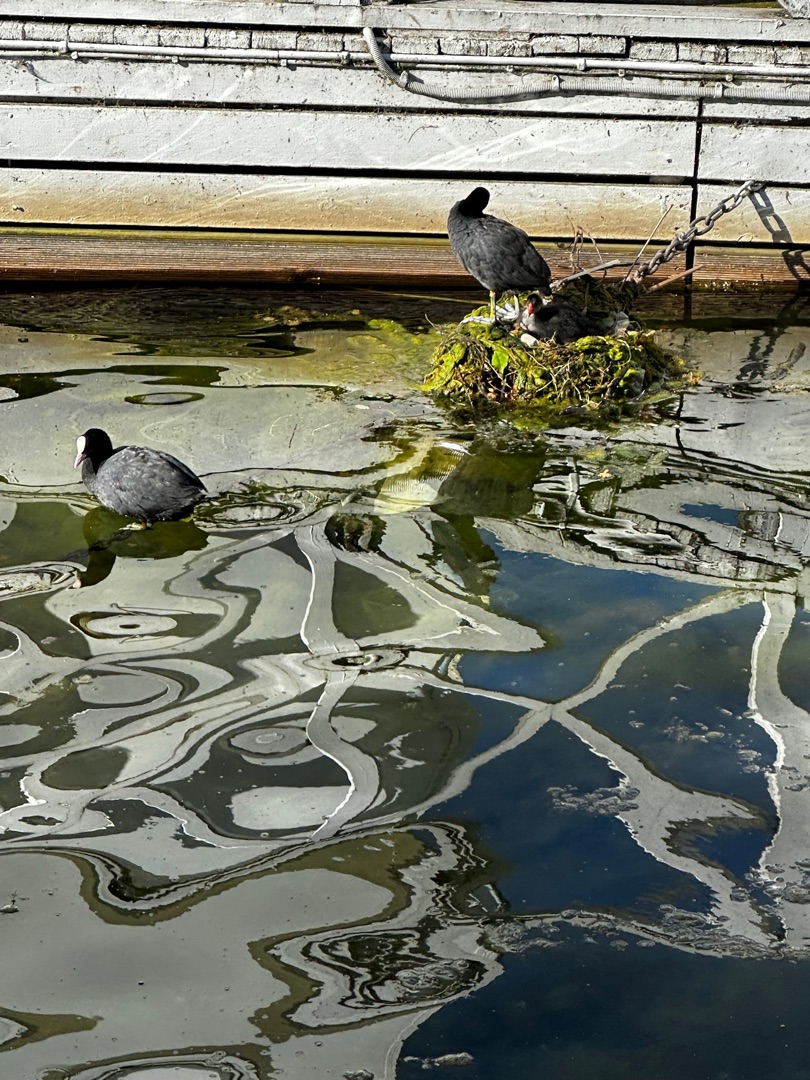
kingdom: Animalia
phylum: Chordata
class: Aves
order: Gruiformes
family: Rallidae
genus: Fulica
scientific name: Fulica atra
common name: Blishøne
